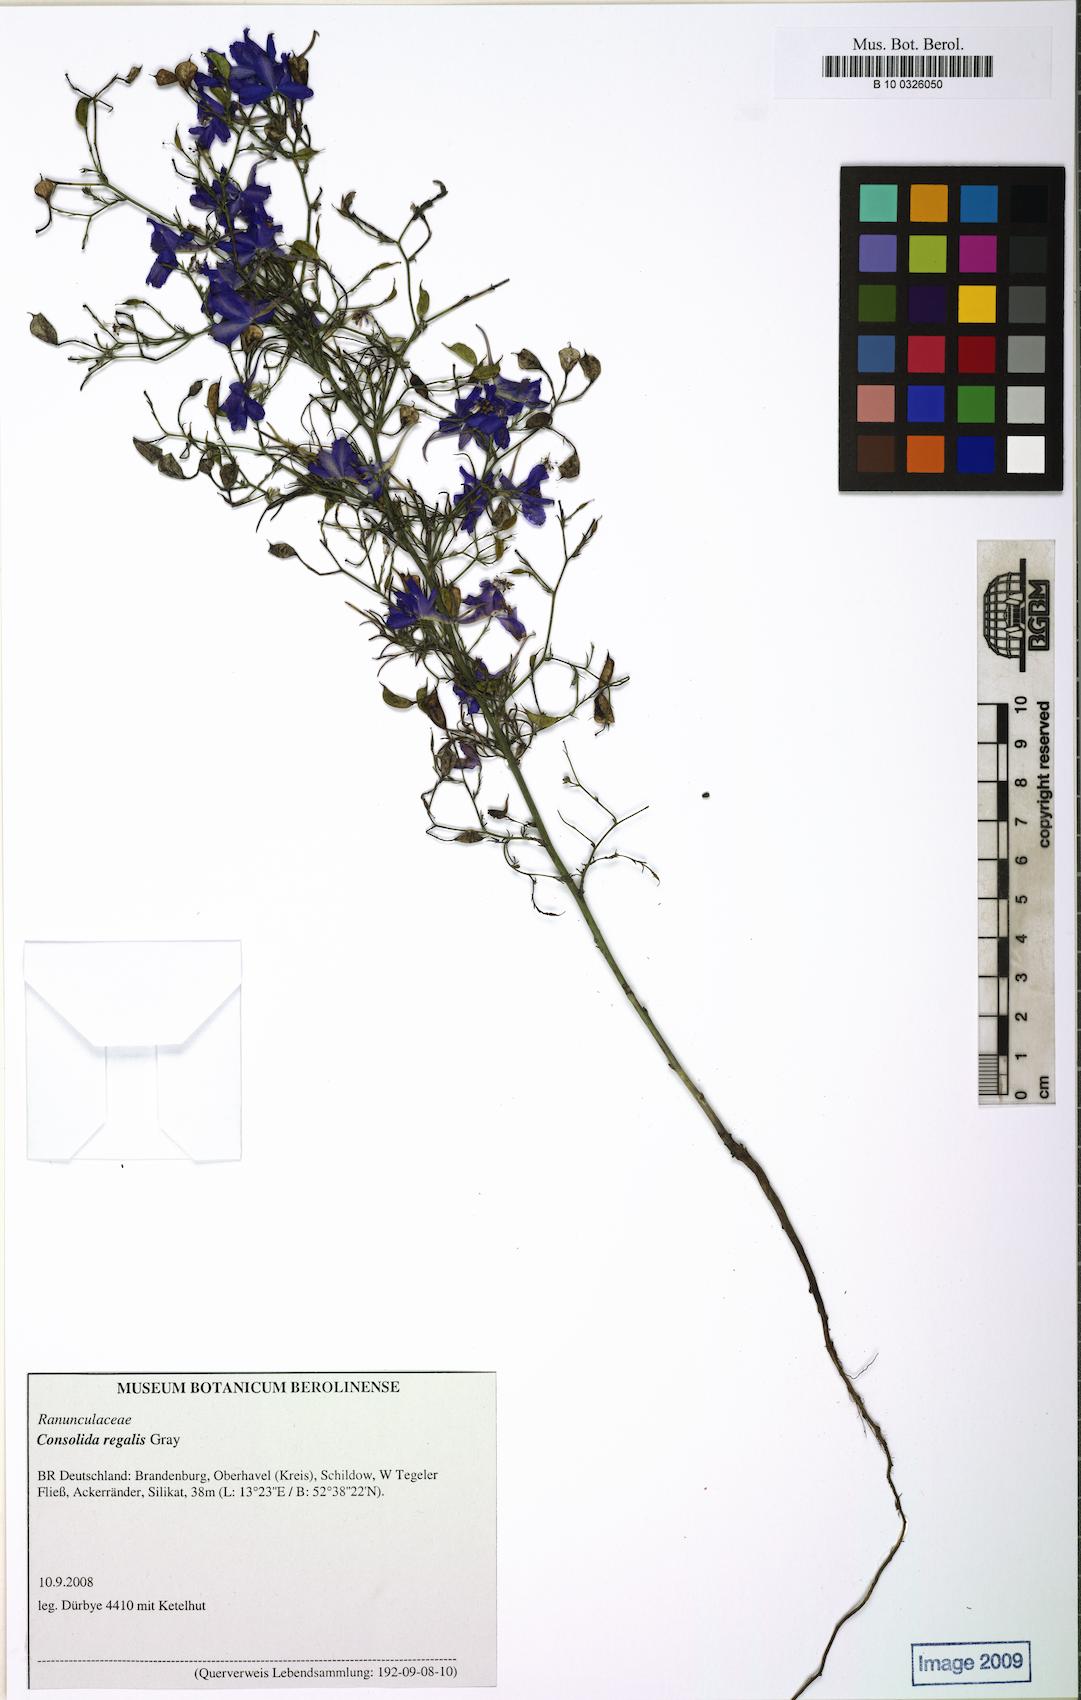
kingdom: Plantae
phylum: Tracheophyta
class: Magnoliopsida
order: Ranunculales
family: Ranunculaceae
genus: Delphinium
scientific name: Delphinium consolida
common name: Branching larkspur
